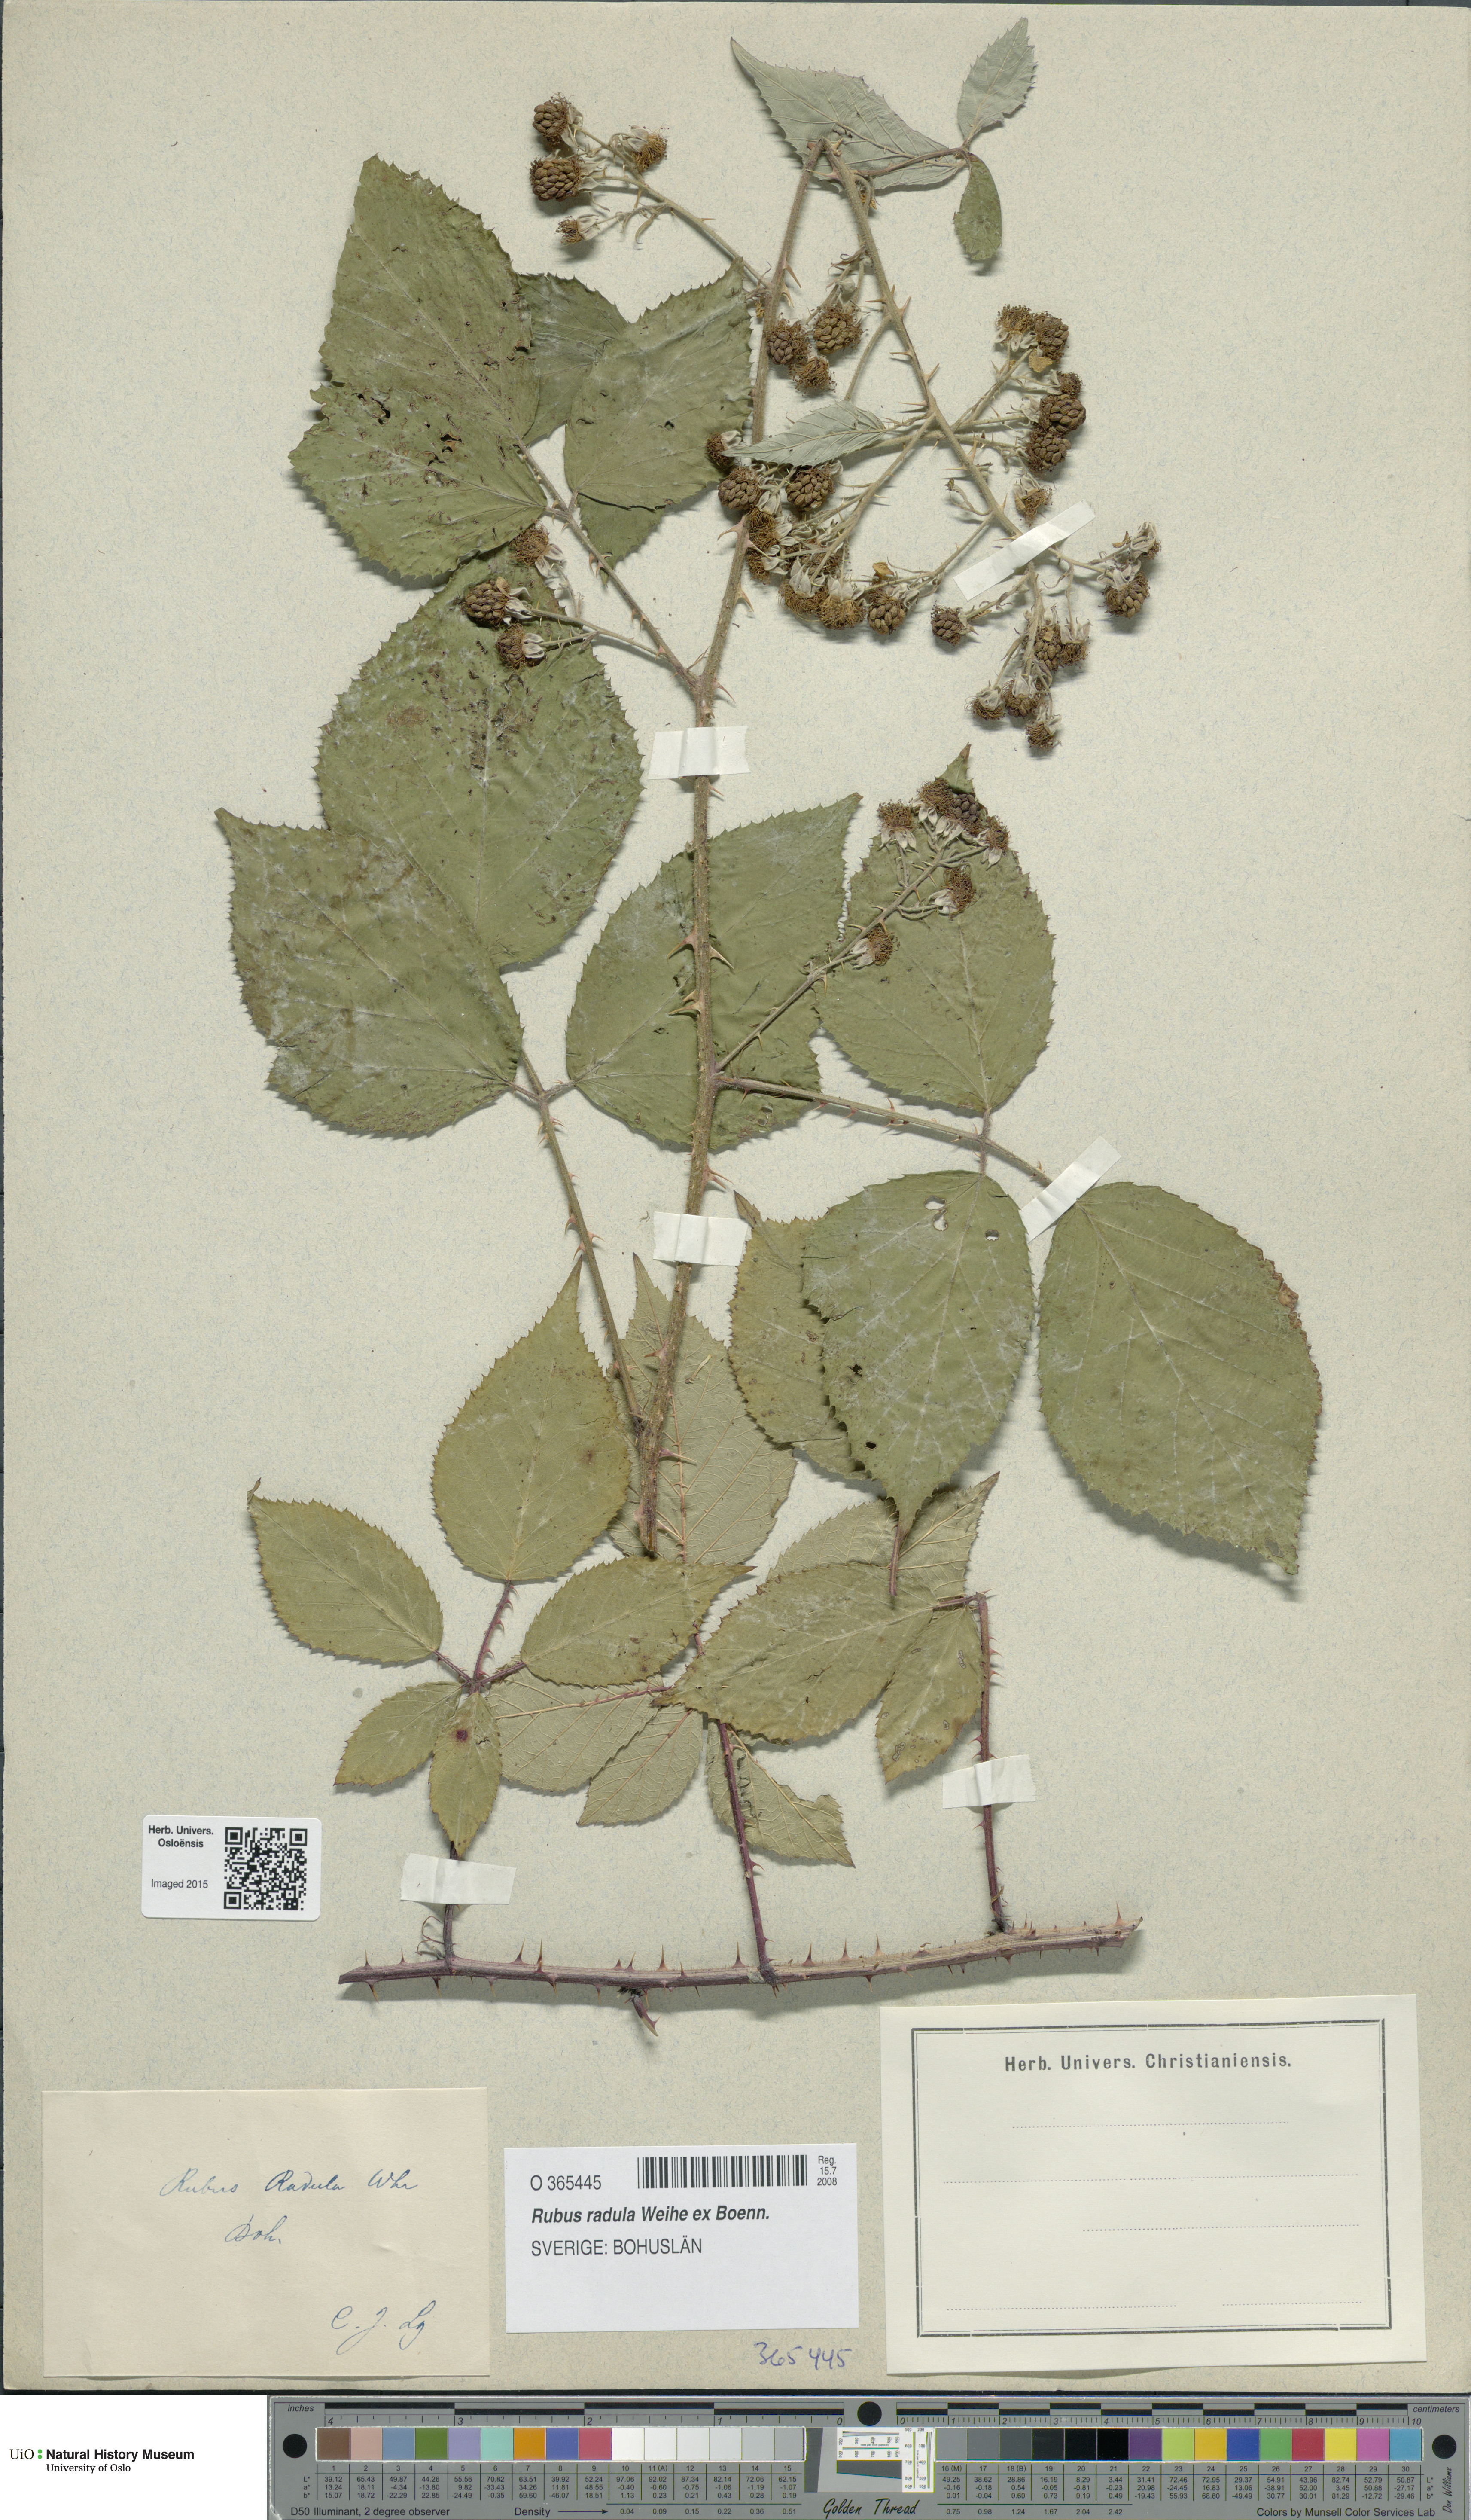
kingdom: Plantae
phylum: Tracheophyta
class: Magnoliopsida
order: Rosales
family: Rosaceae
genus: Rubus
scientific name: Rubus radula
